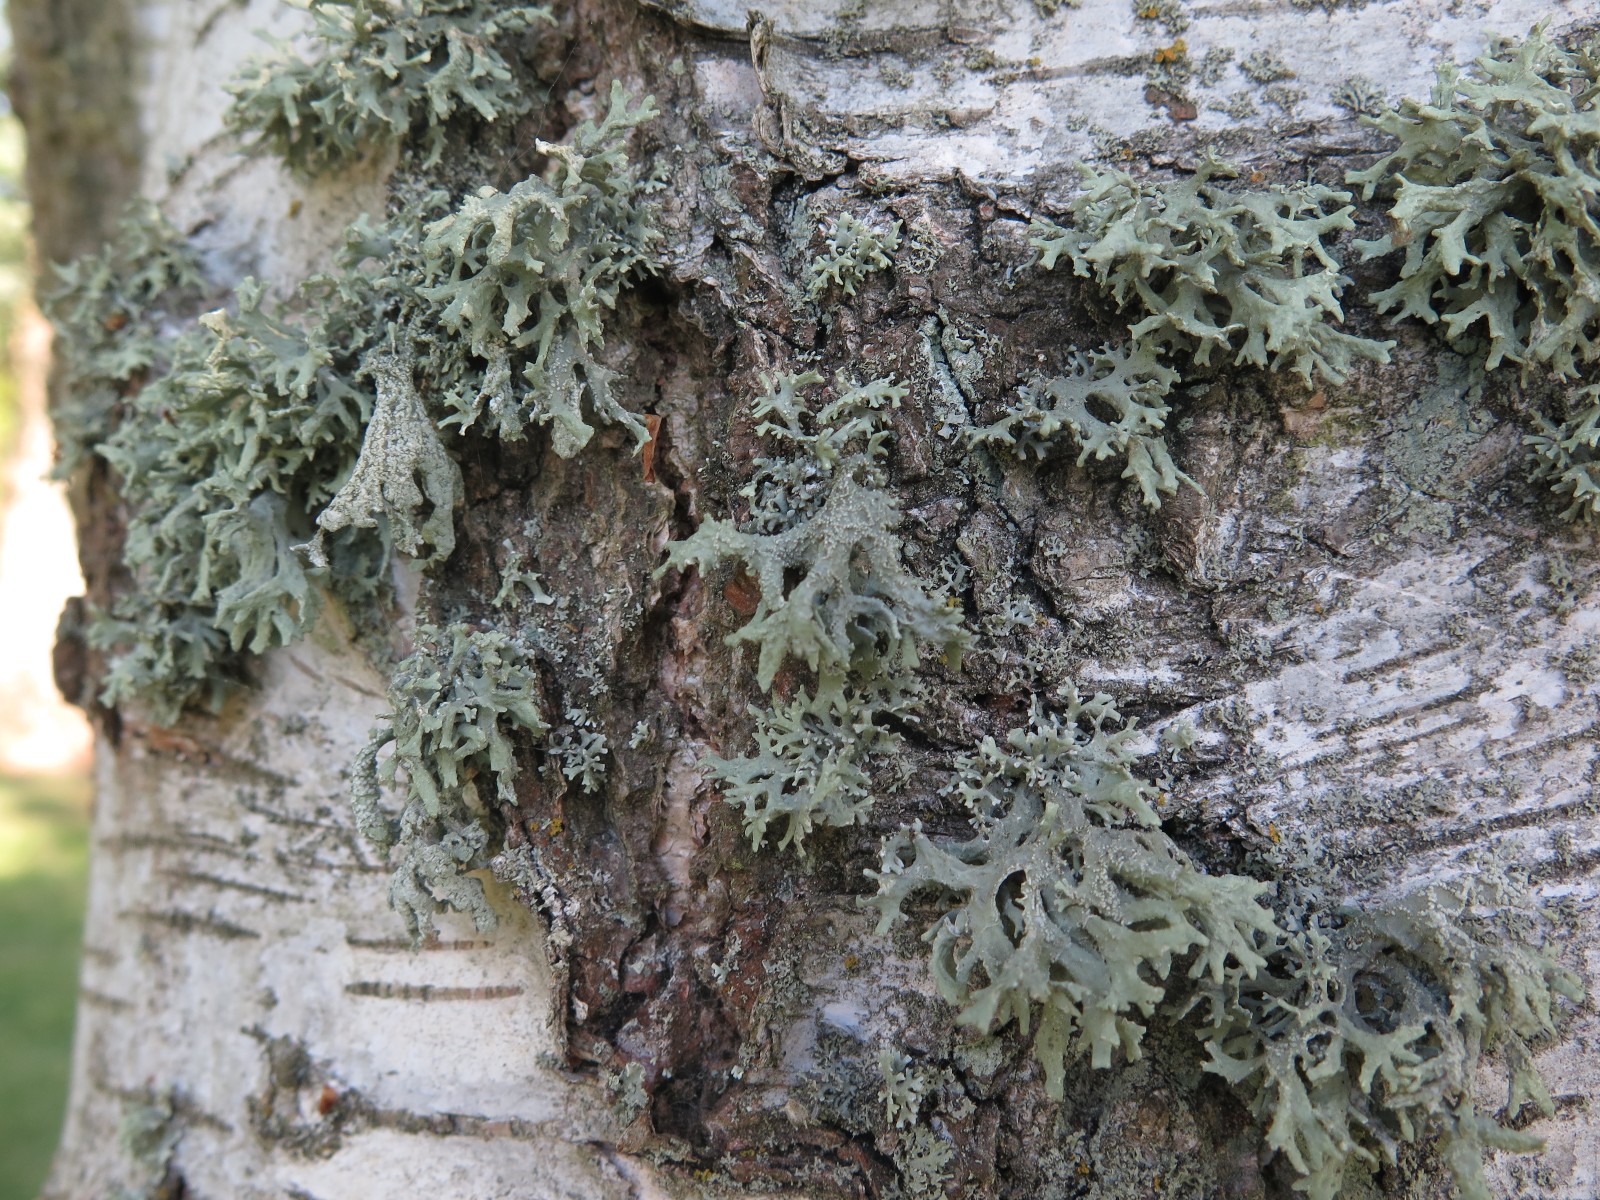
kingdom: Fungi
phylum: Ascomycota
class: Lecanoromycetes
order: Lecanorales
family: Parmeliaceae
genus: Evernia
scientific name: Evernia prunastri
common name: almindelig slåenlav
